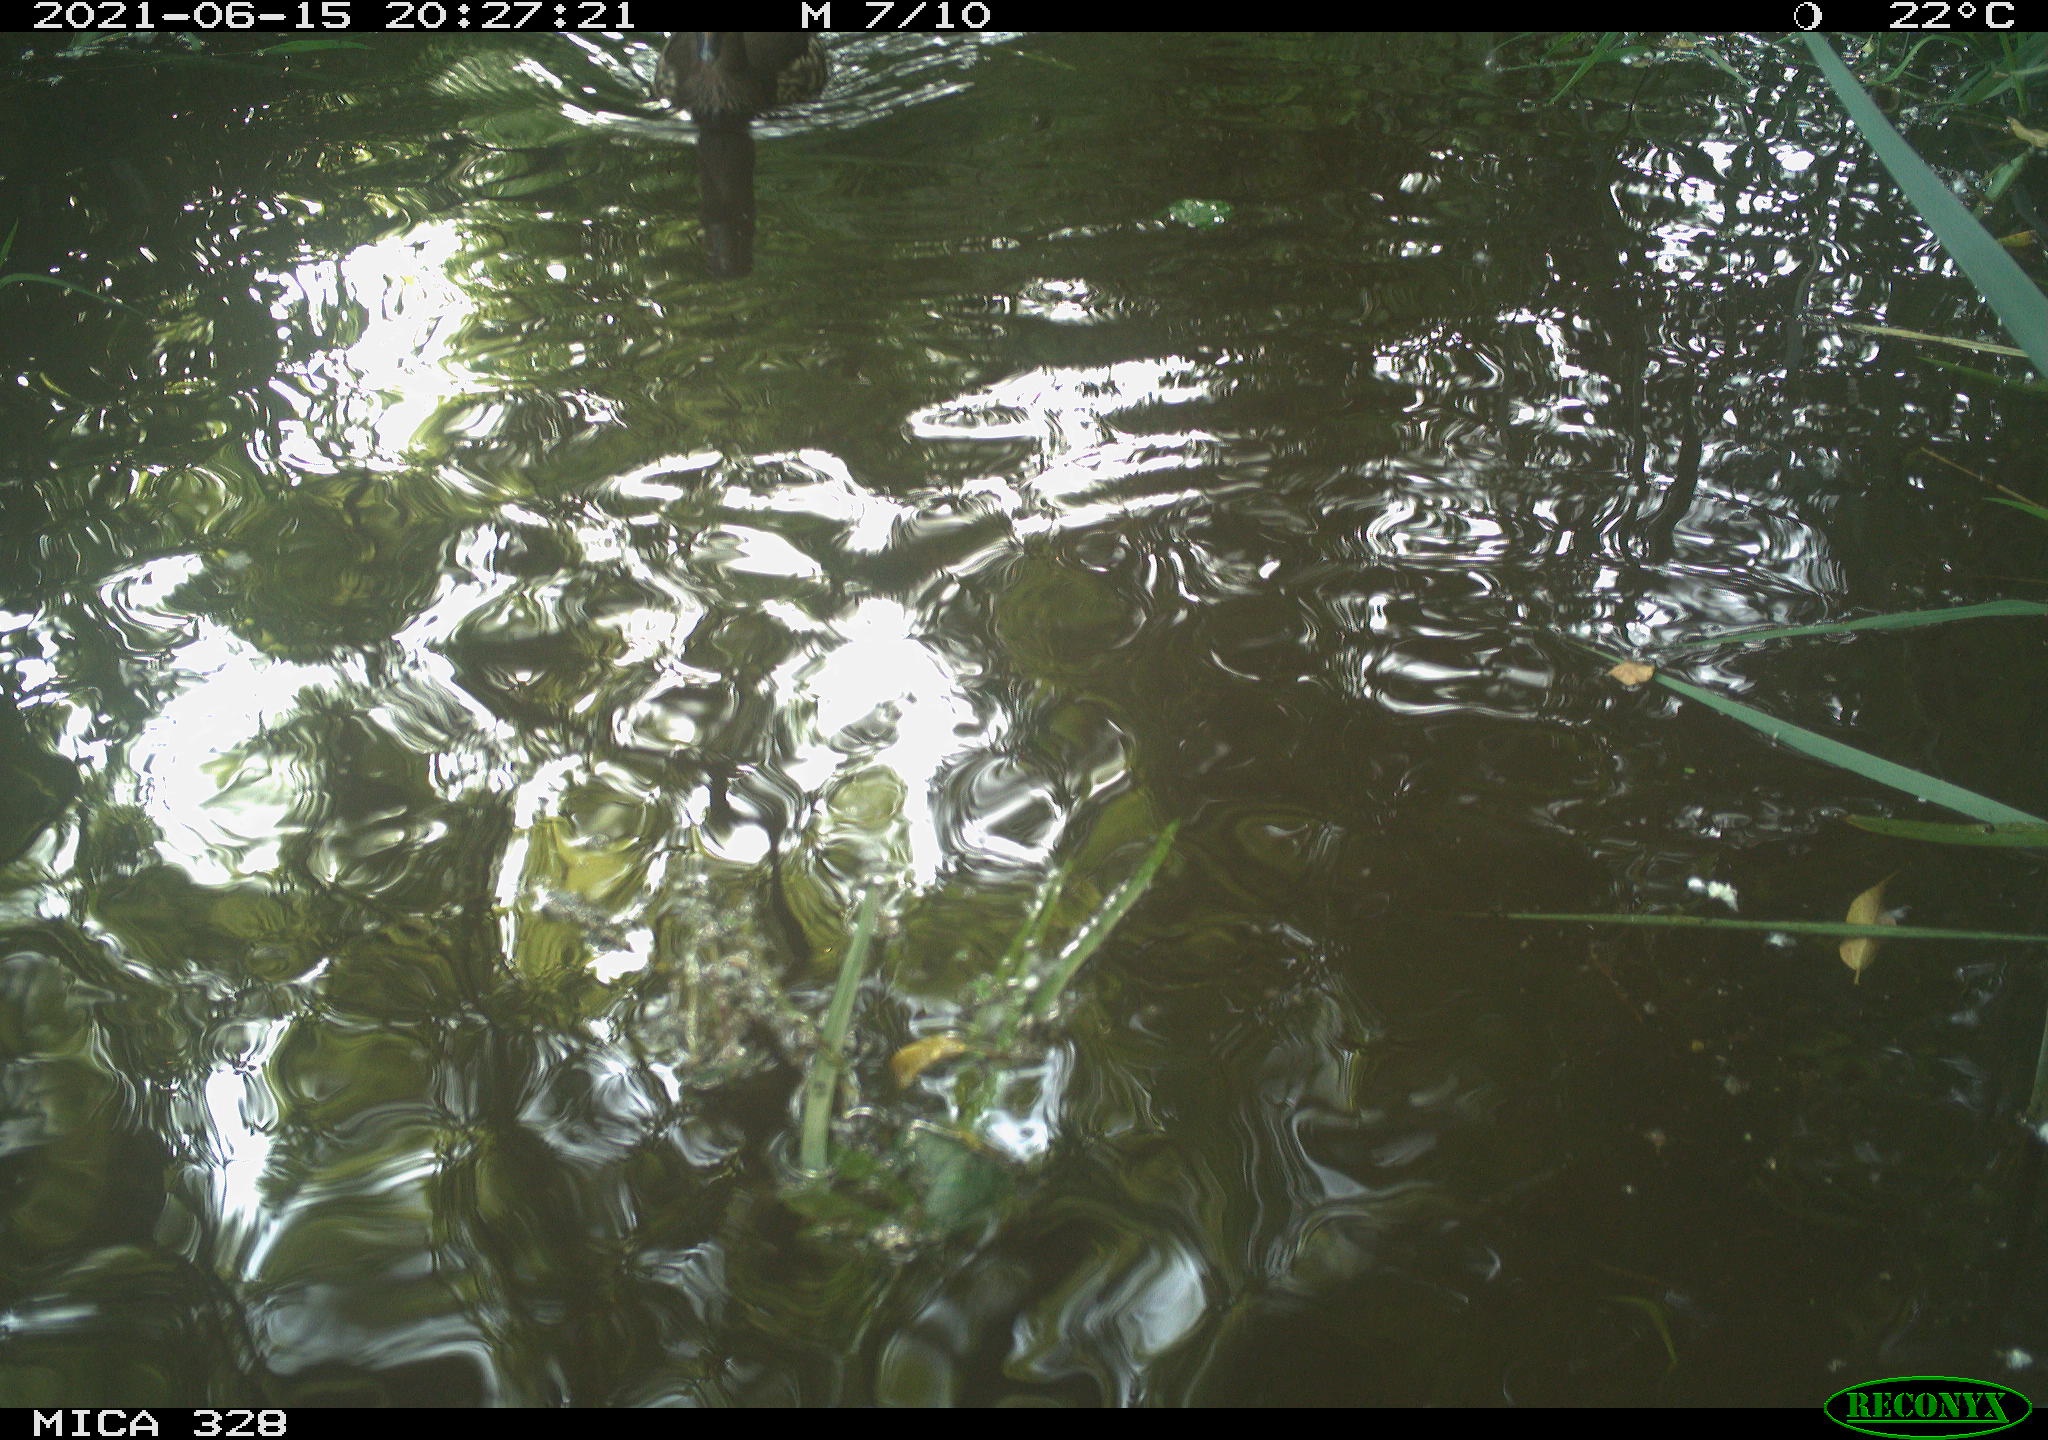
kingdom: Animalia
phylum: Chordata
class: Aves
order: Anseriformes
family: Anatidae
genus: Aix
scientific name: Aix galericulata
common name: Mandarin duck
